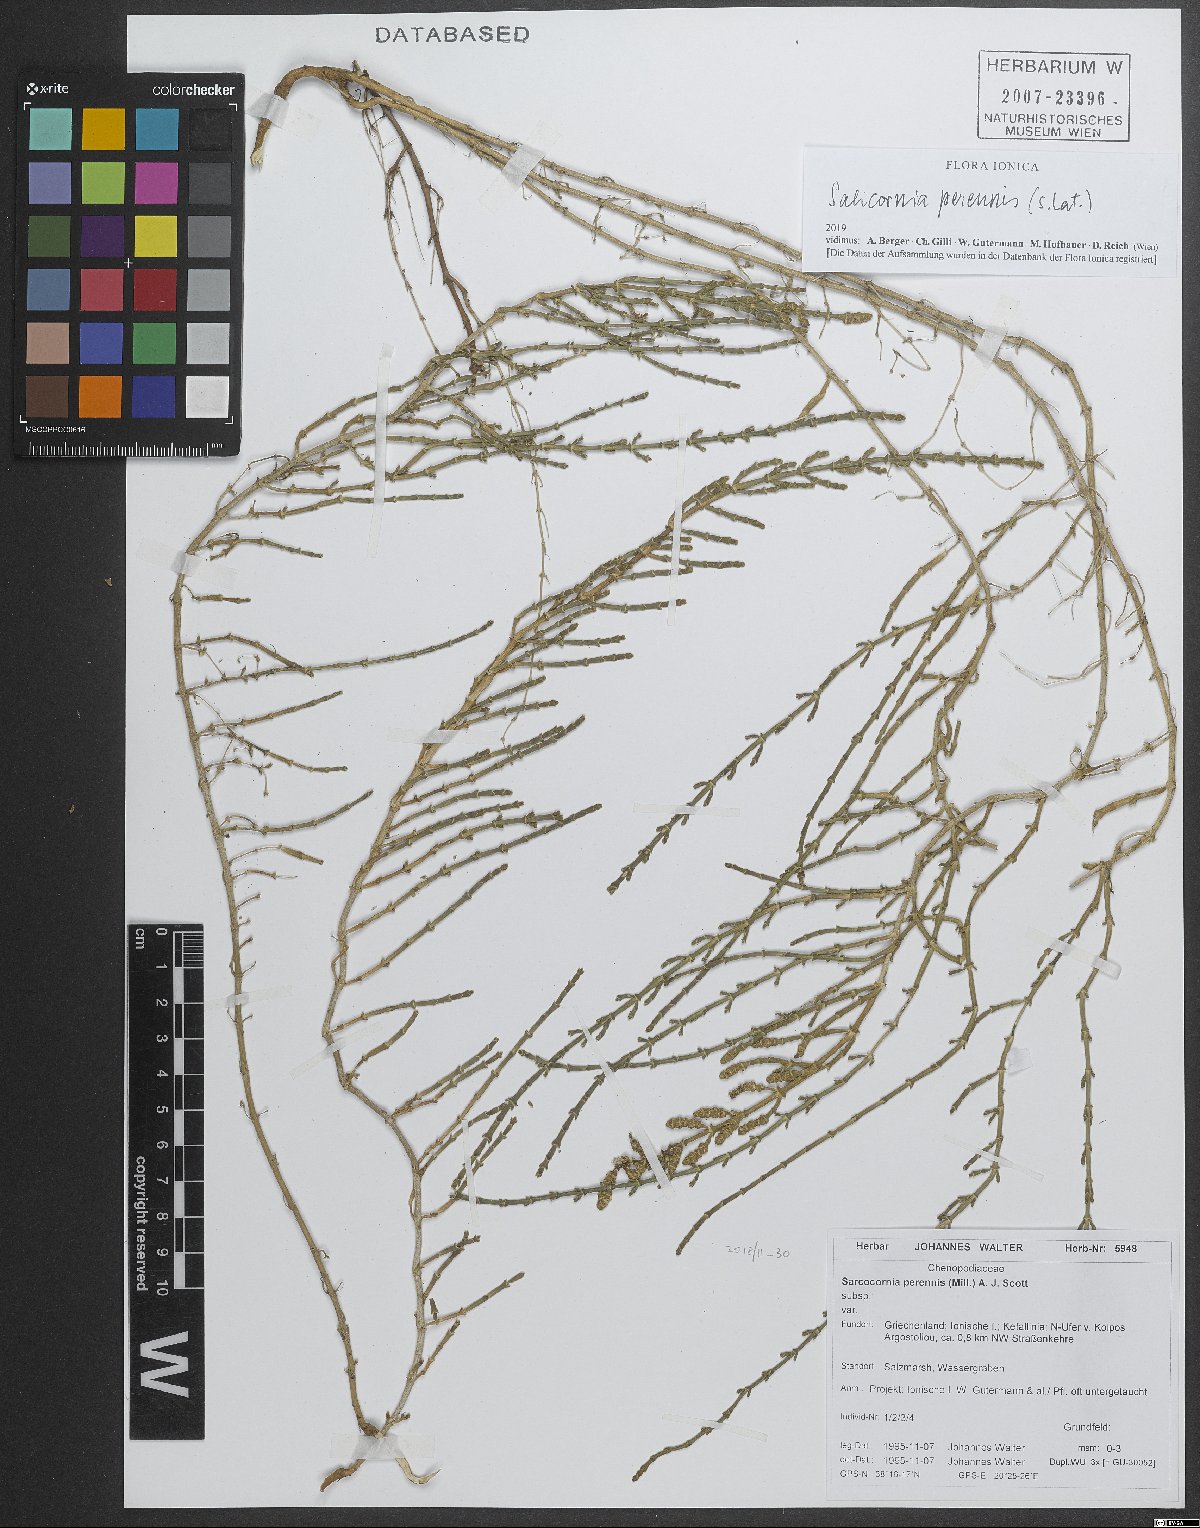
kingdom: Plantae
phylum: Tracheophyta
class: Magnoliopsida
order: Caryophyllales
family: Amaranthaceae
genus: Salicornia
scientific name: Salicornia perennis
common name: Chicken claws
